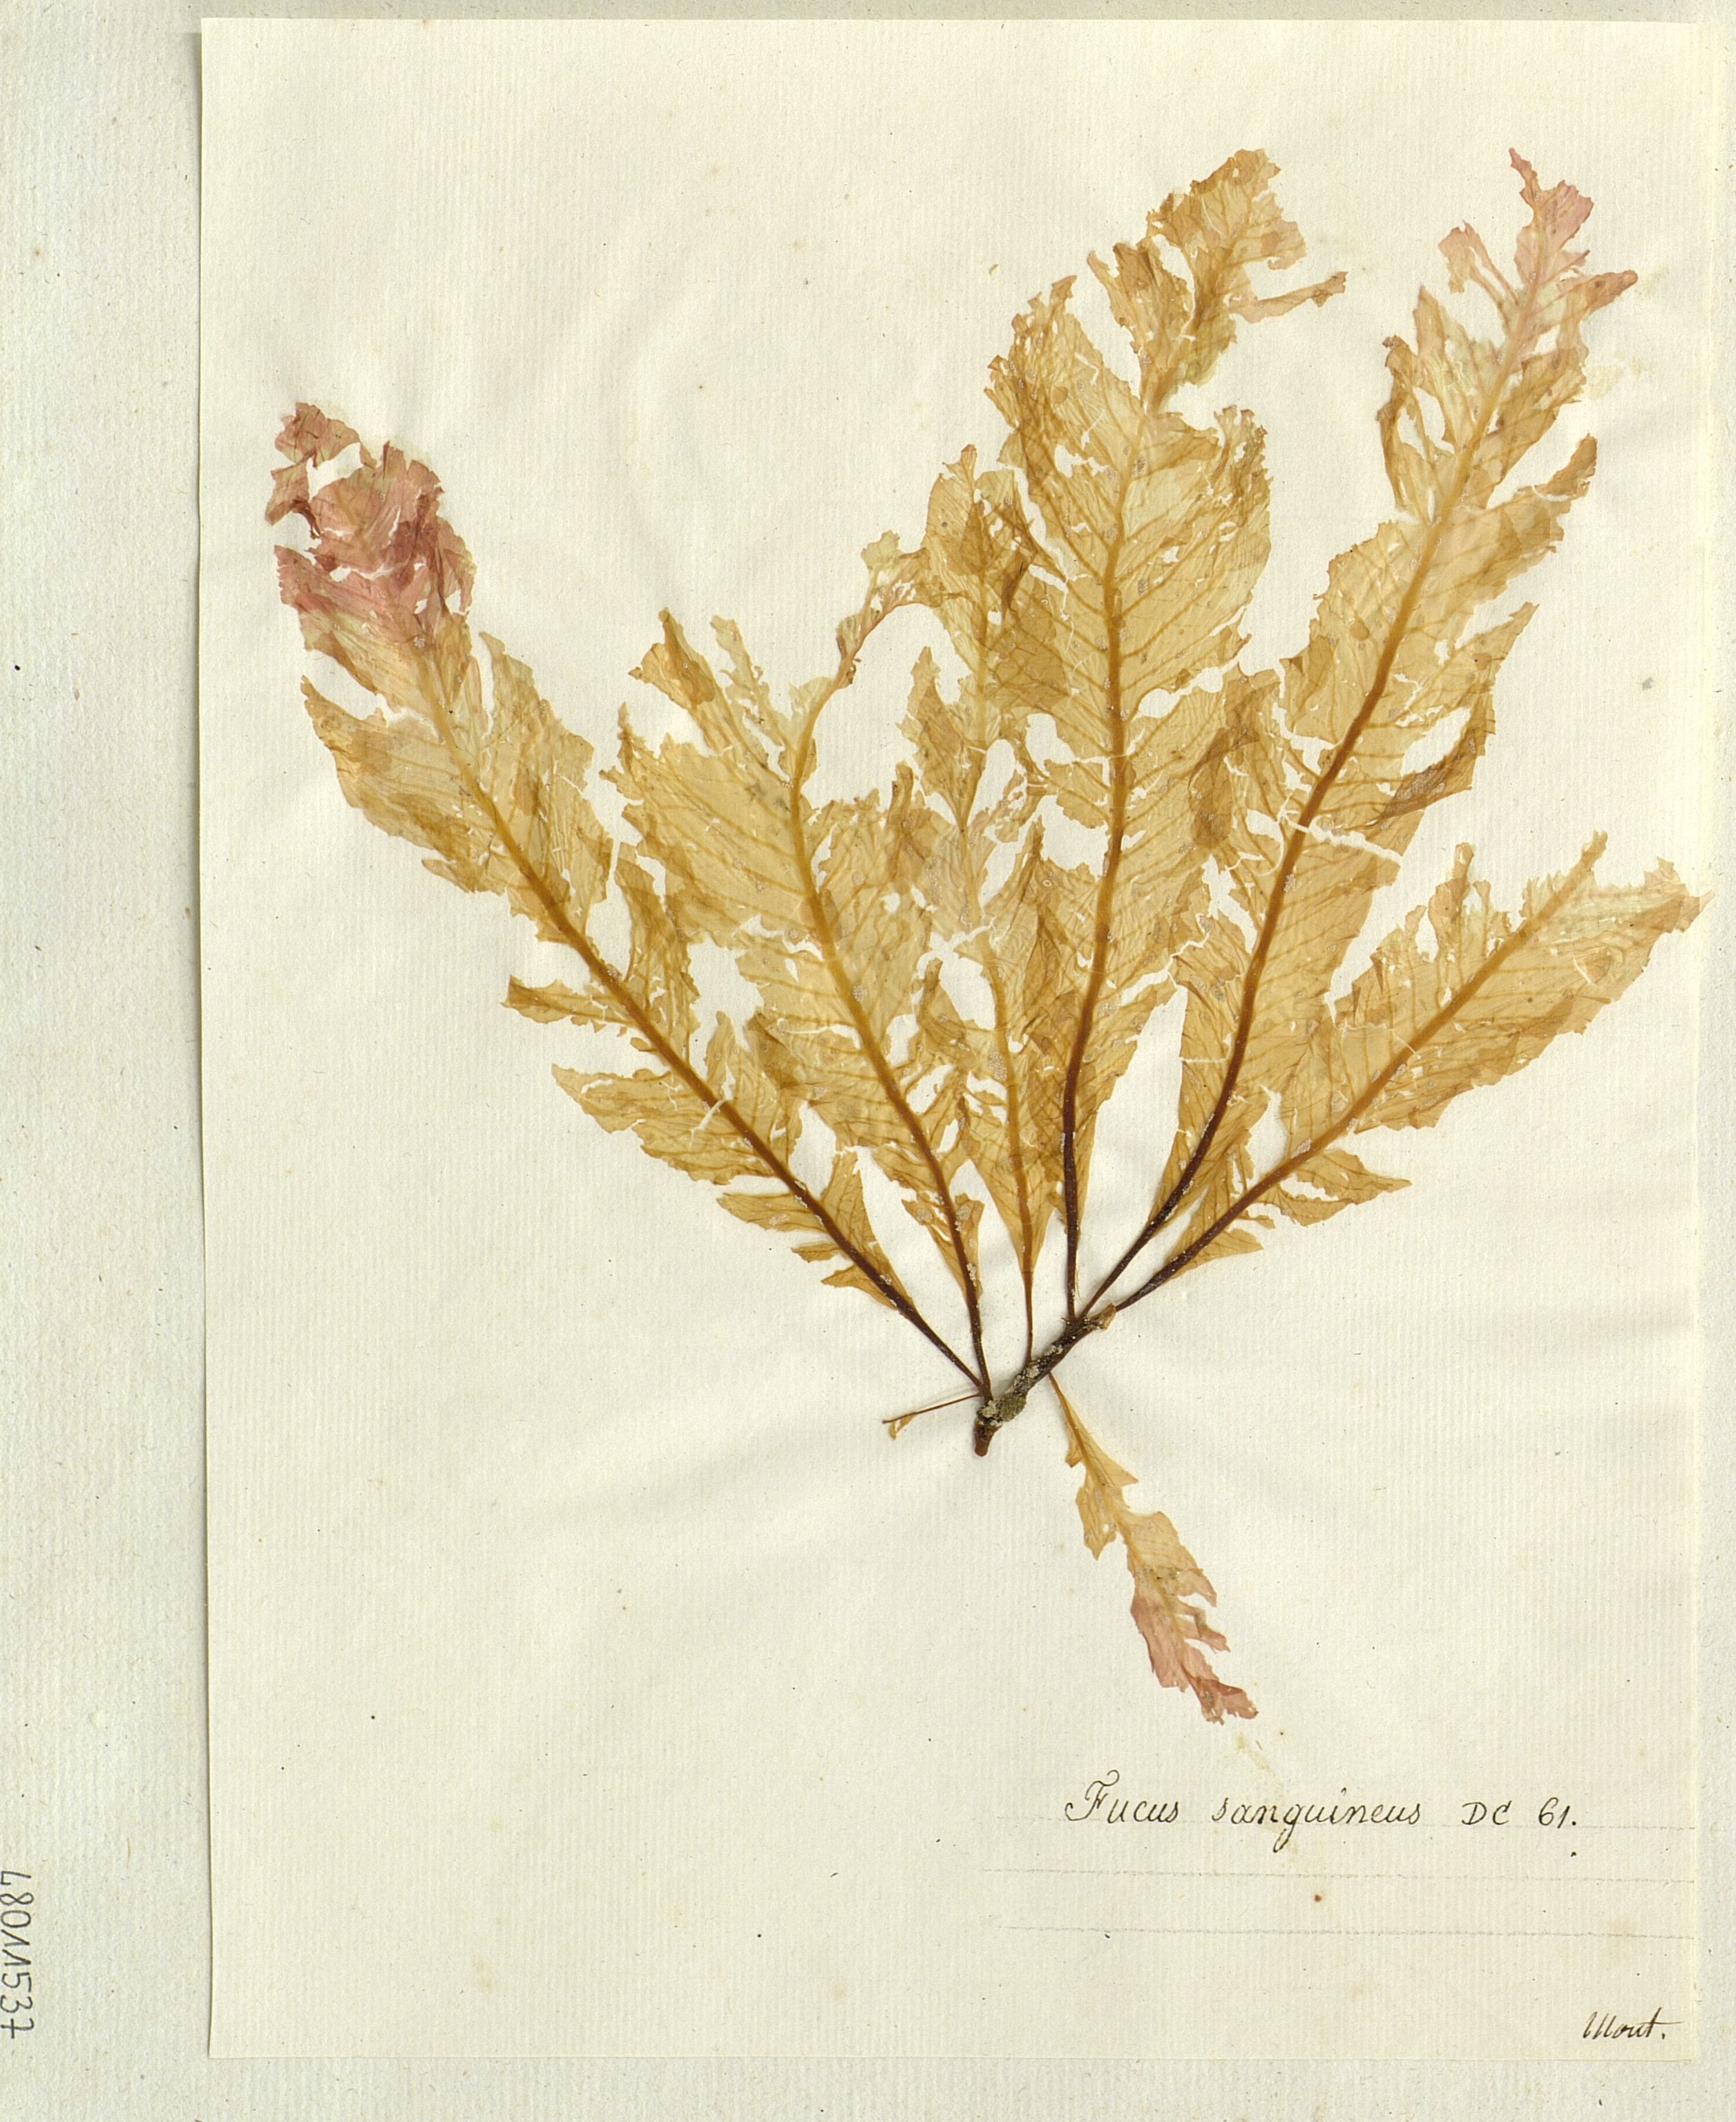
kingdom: Chromista
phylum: Ochrophyta
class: Phaeophyceae
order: Fucales
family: Fucaceae
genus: Fucus
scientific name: Fucus
